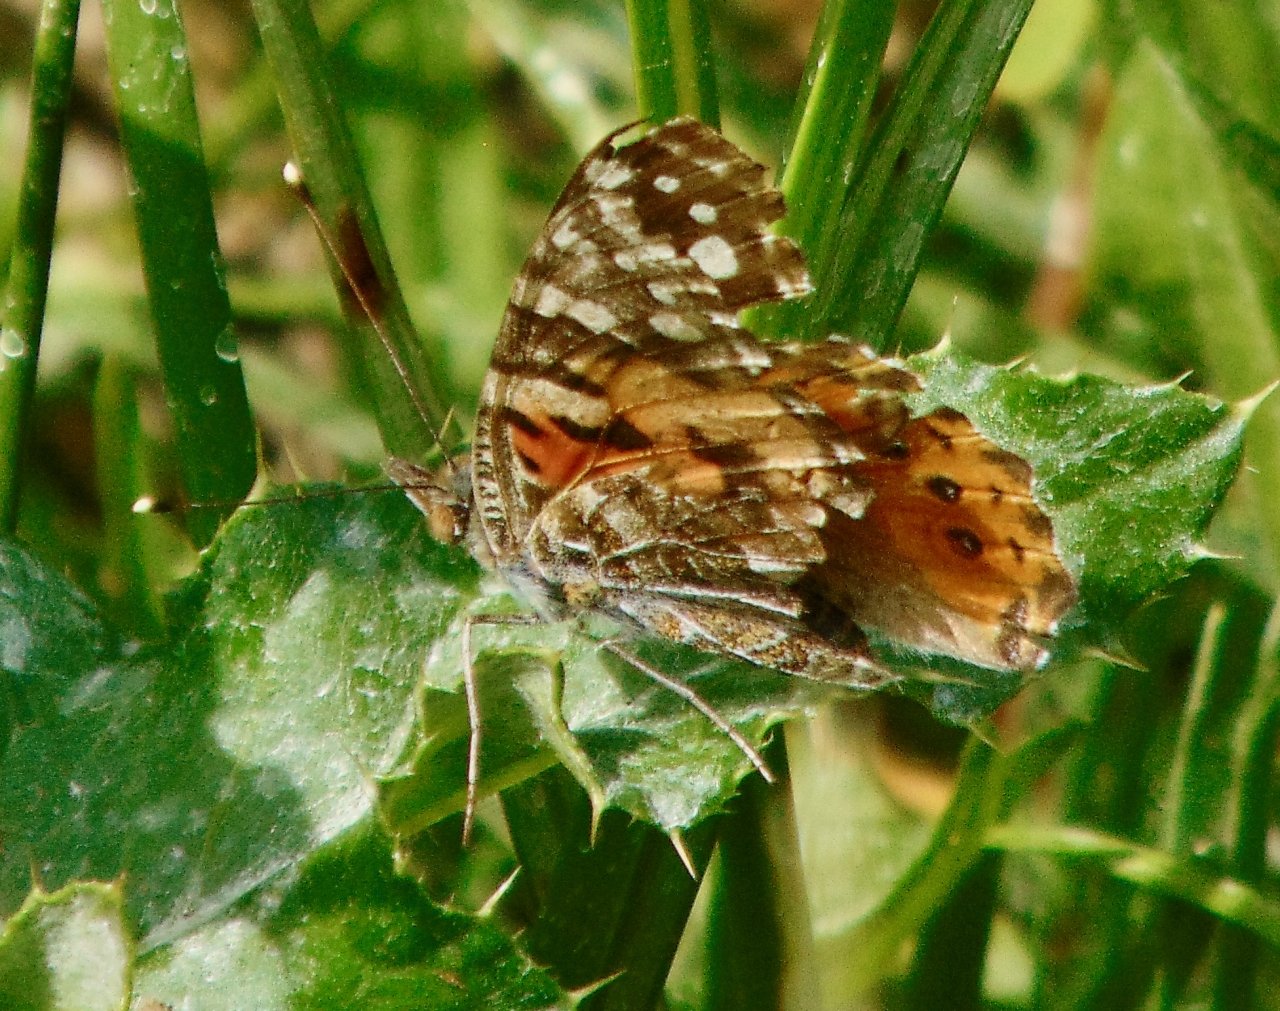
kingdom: Animalia
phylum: Arthropoda
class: Insecta
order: Lepidoptera
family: Nymphalidae
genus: Vanessa
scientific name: Vanessa cardui
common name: Painted Lady
